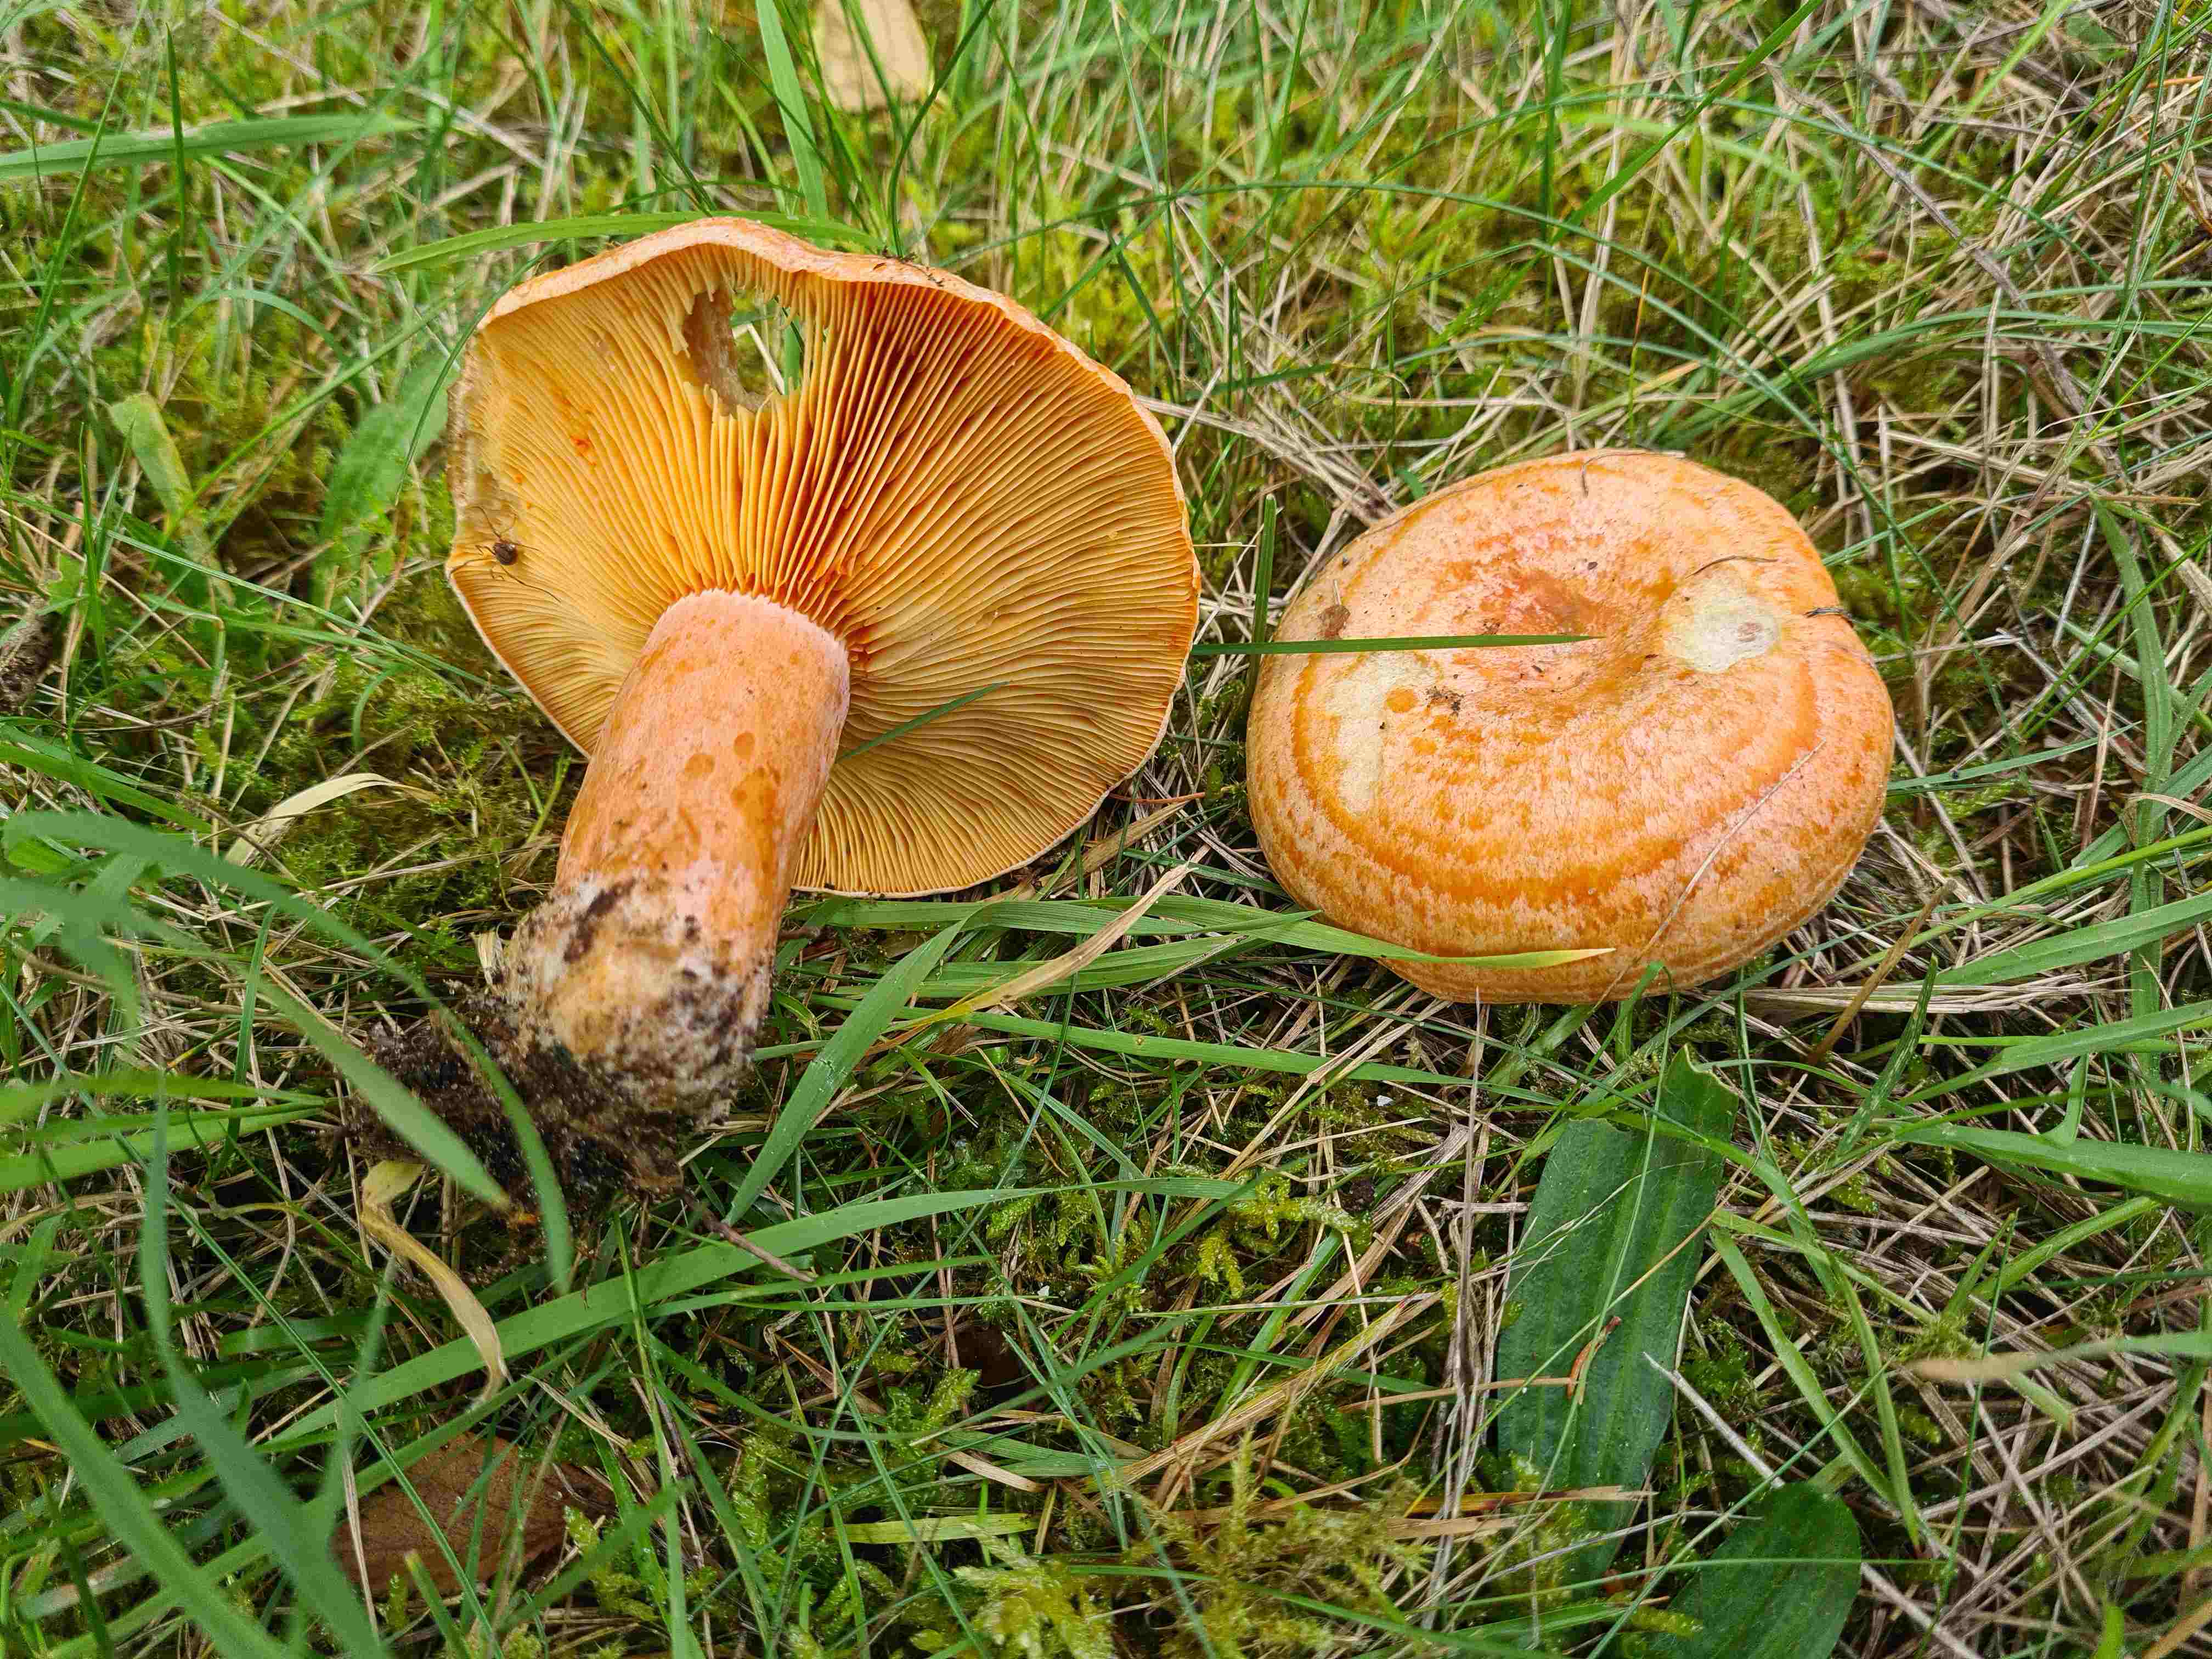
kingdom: Fungi
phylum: Basidiomycota
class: Agaricomycetes
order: Russulales
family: Russulaceae
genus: Lactarius
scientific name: Lactarius deliciosus
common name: velsmagende mælkehat
